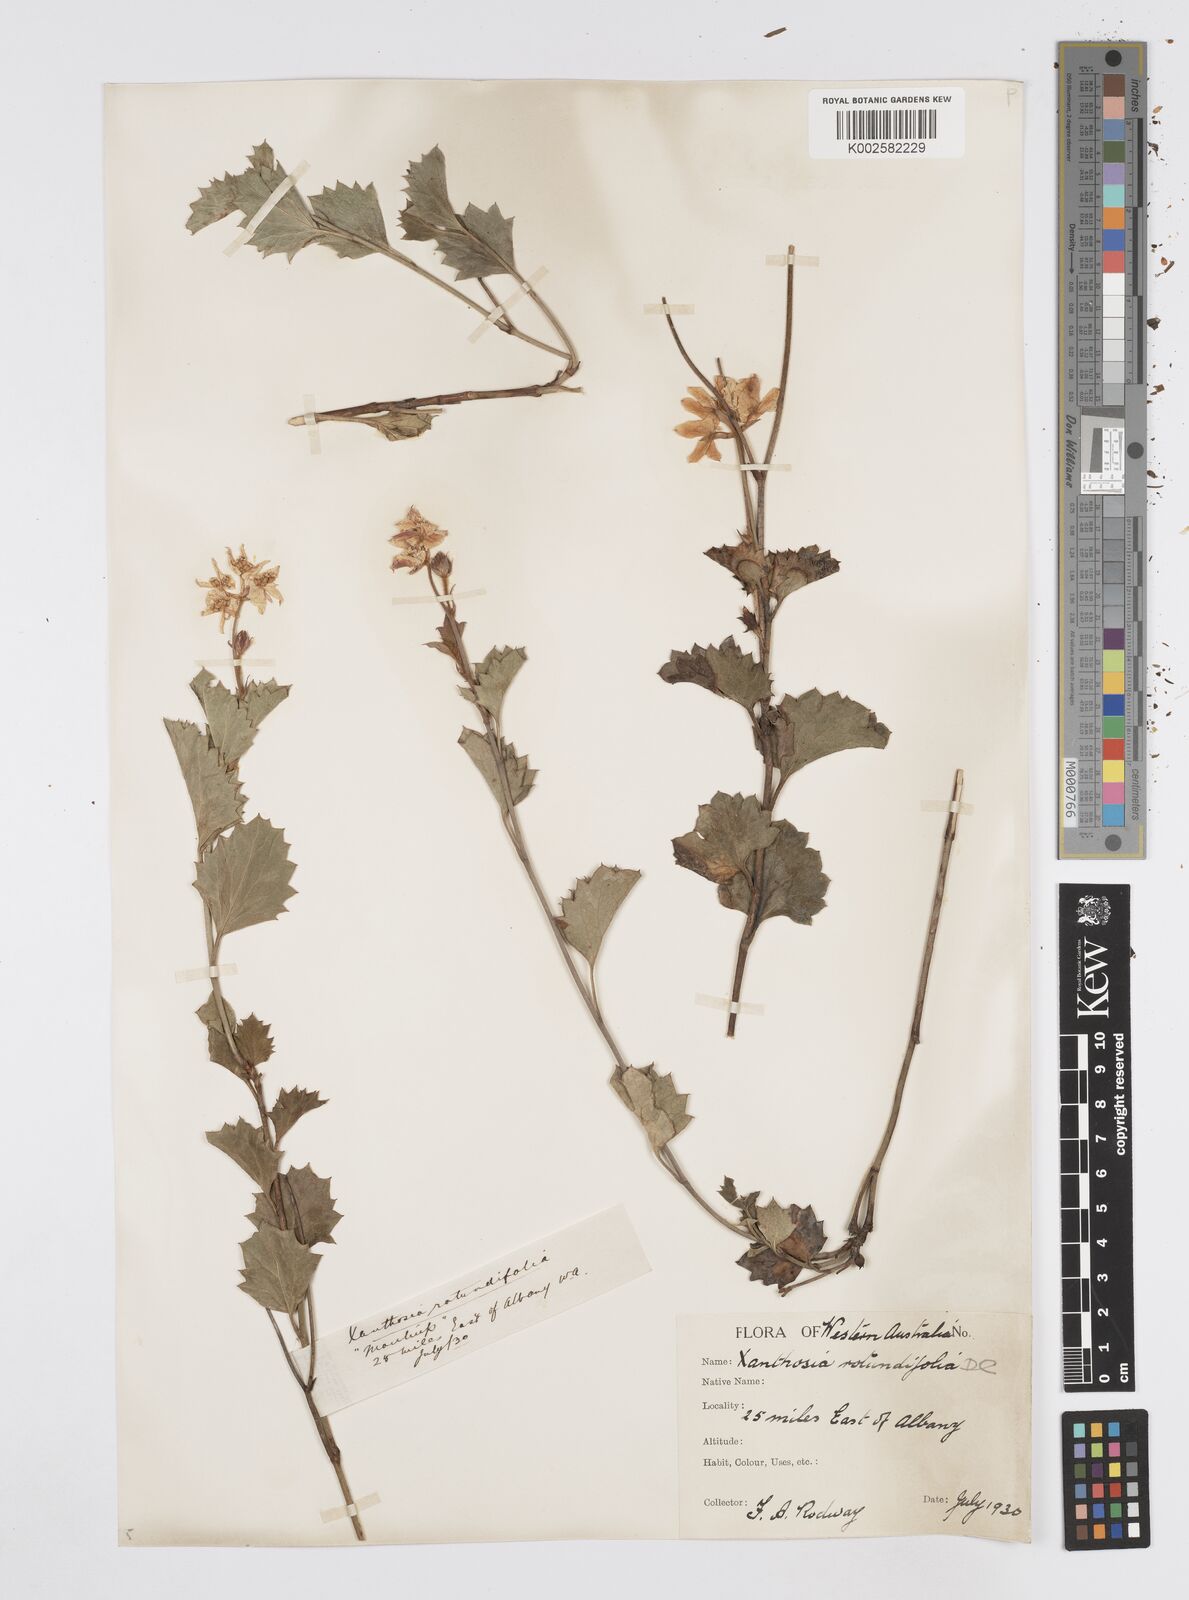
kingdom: Plantae
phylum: Tracheophyta
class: Magnoliopsida
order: Apiales
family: Apiaceae
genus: Xanthosia
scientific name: Xanthosia rotundifolia
